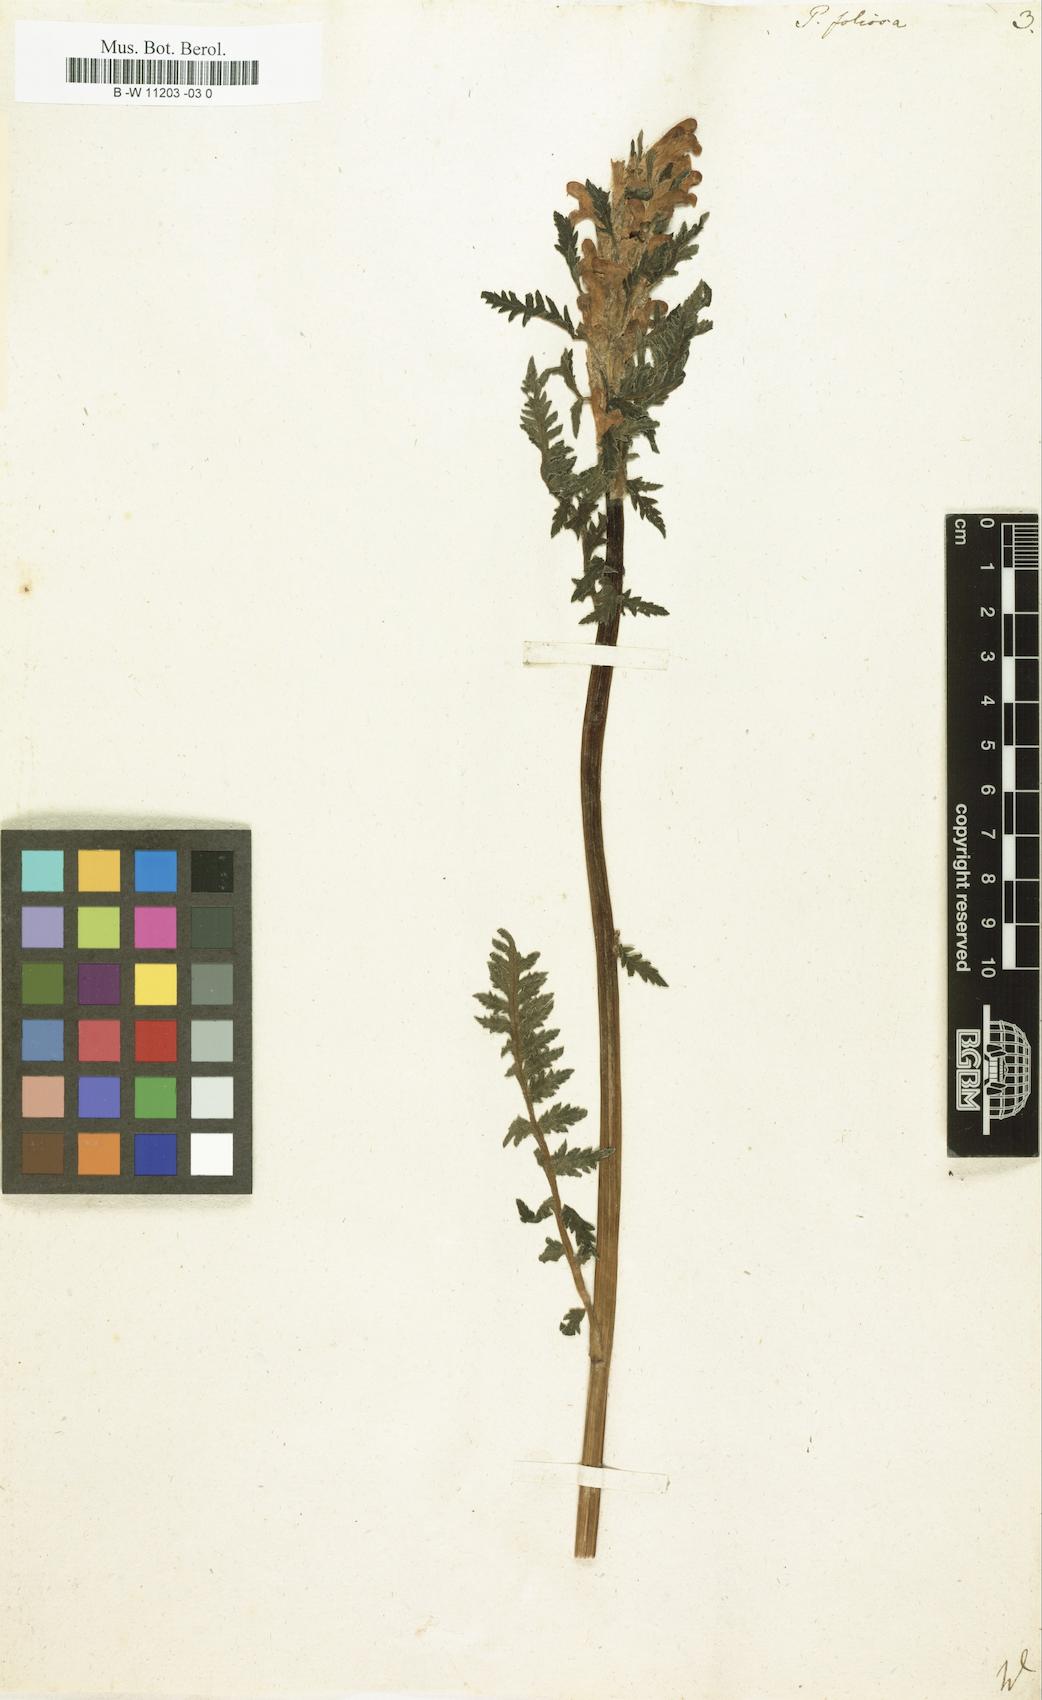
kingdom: Plantae
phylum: Tracheophyta
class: Magnoliopsida
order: Lamiales
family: Orobanchaceae
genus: Pedicularis
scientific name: Pedicularis foliosa
